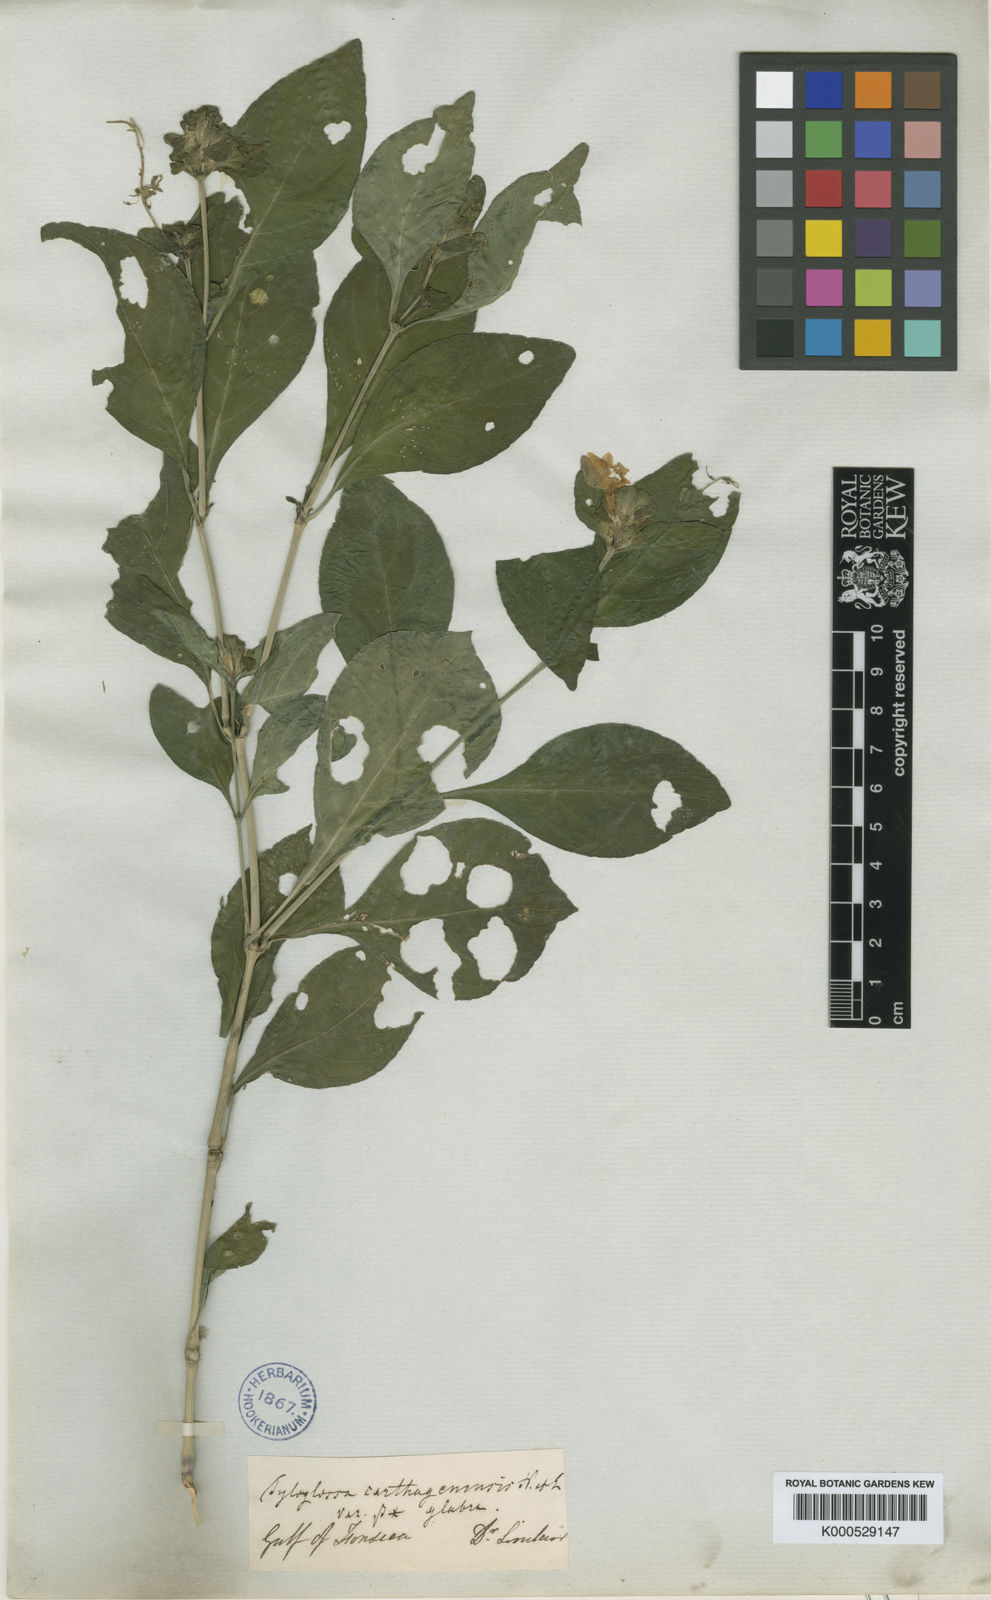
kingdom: Plantae
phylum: Tracheophyta
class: Magnoliopsida
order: Lamiales
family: Acanthaceae
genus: Justicia
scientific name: Justicia carthaginensis
